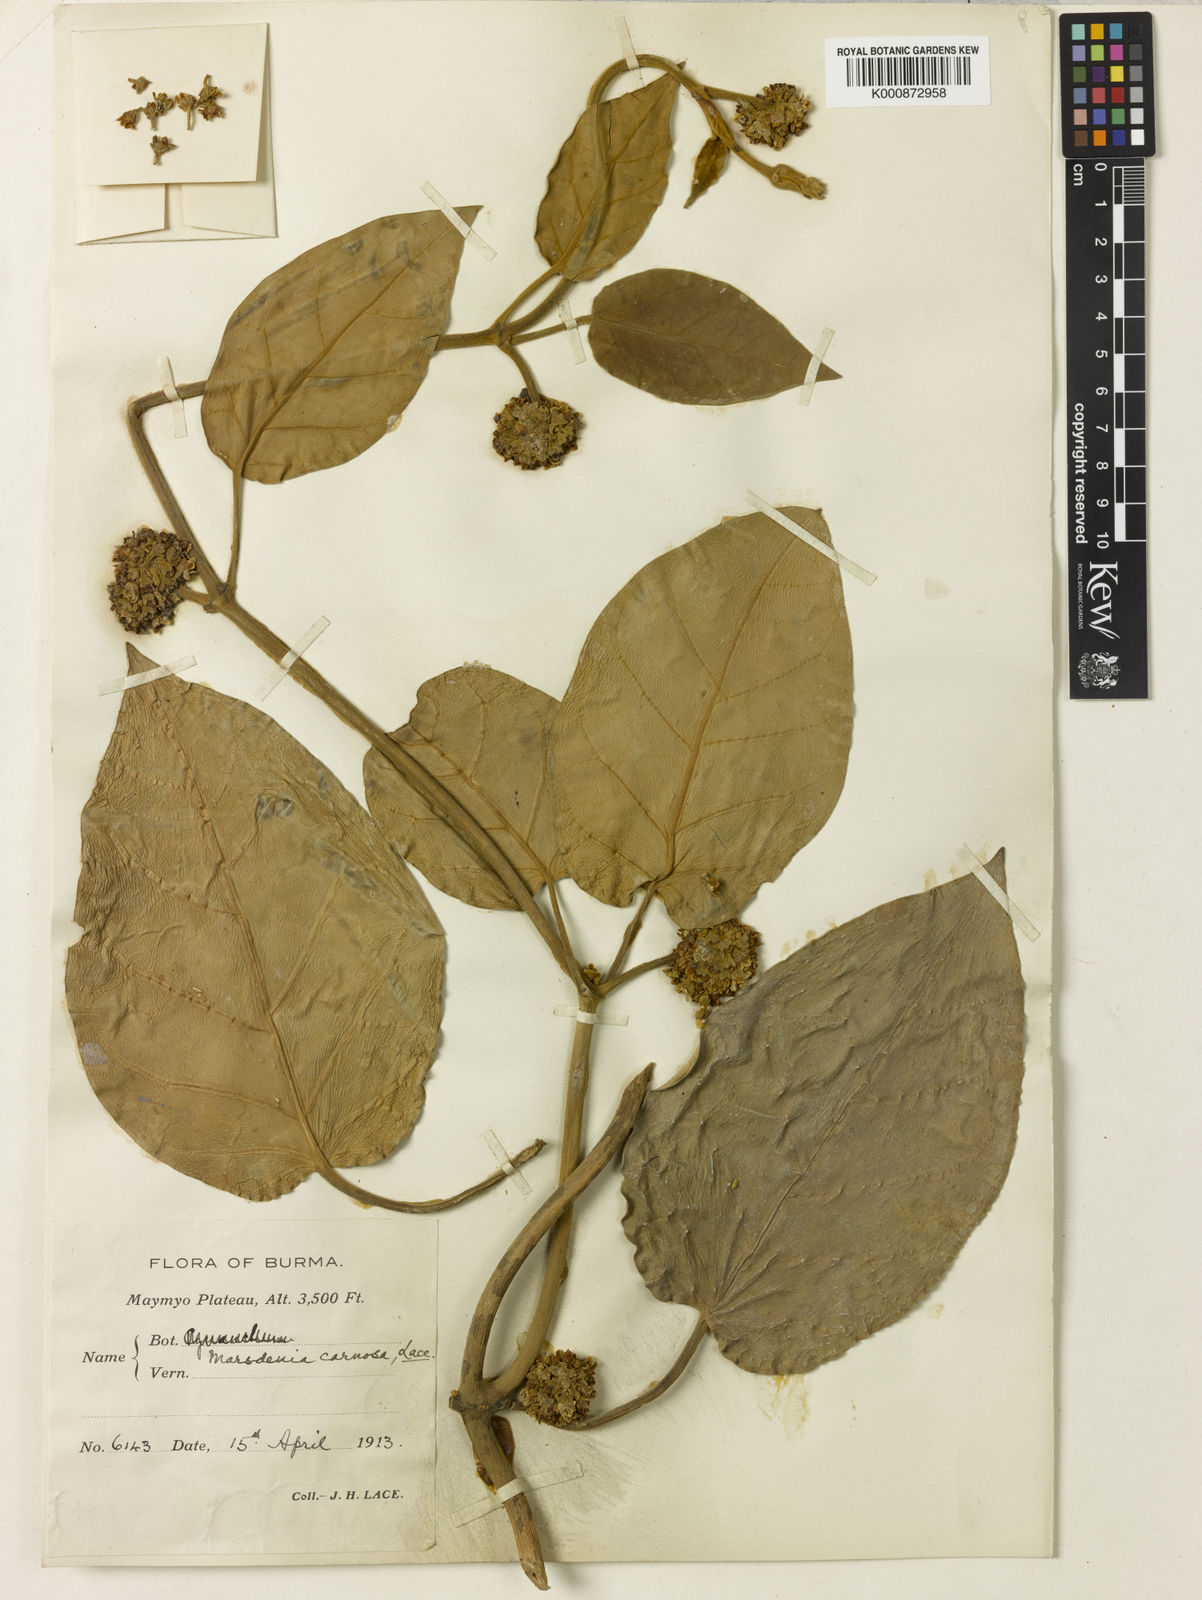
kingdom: Plantae
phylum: Tracheophyta
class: Magnoliopsida
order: Gentianales
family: Apocynaceae
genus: Marsdenia
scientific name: Marsdenia carnosa
